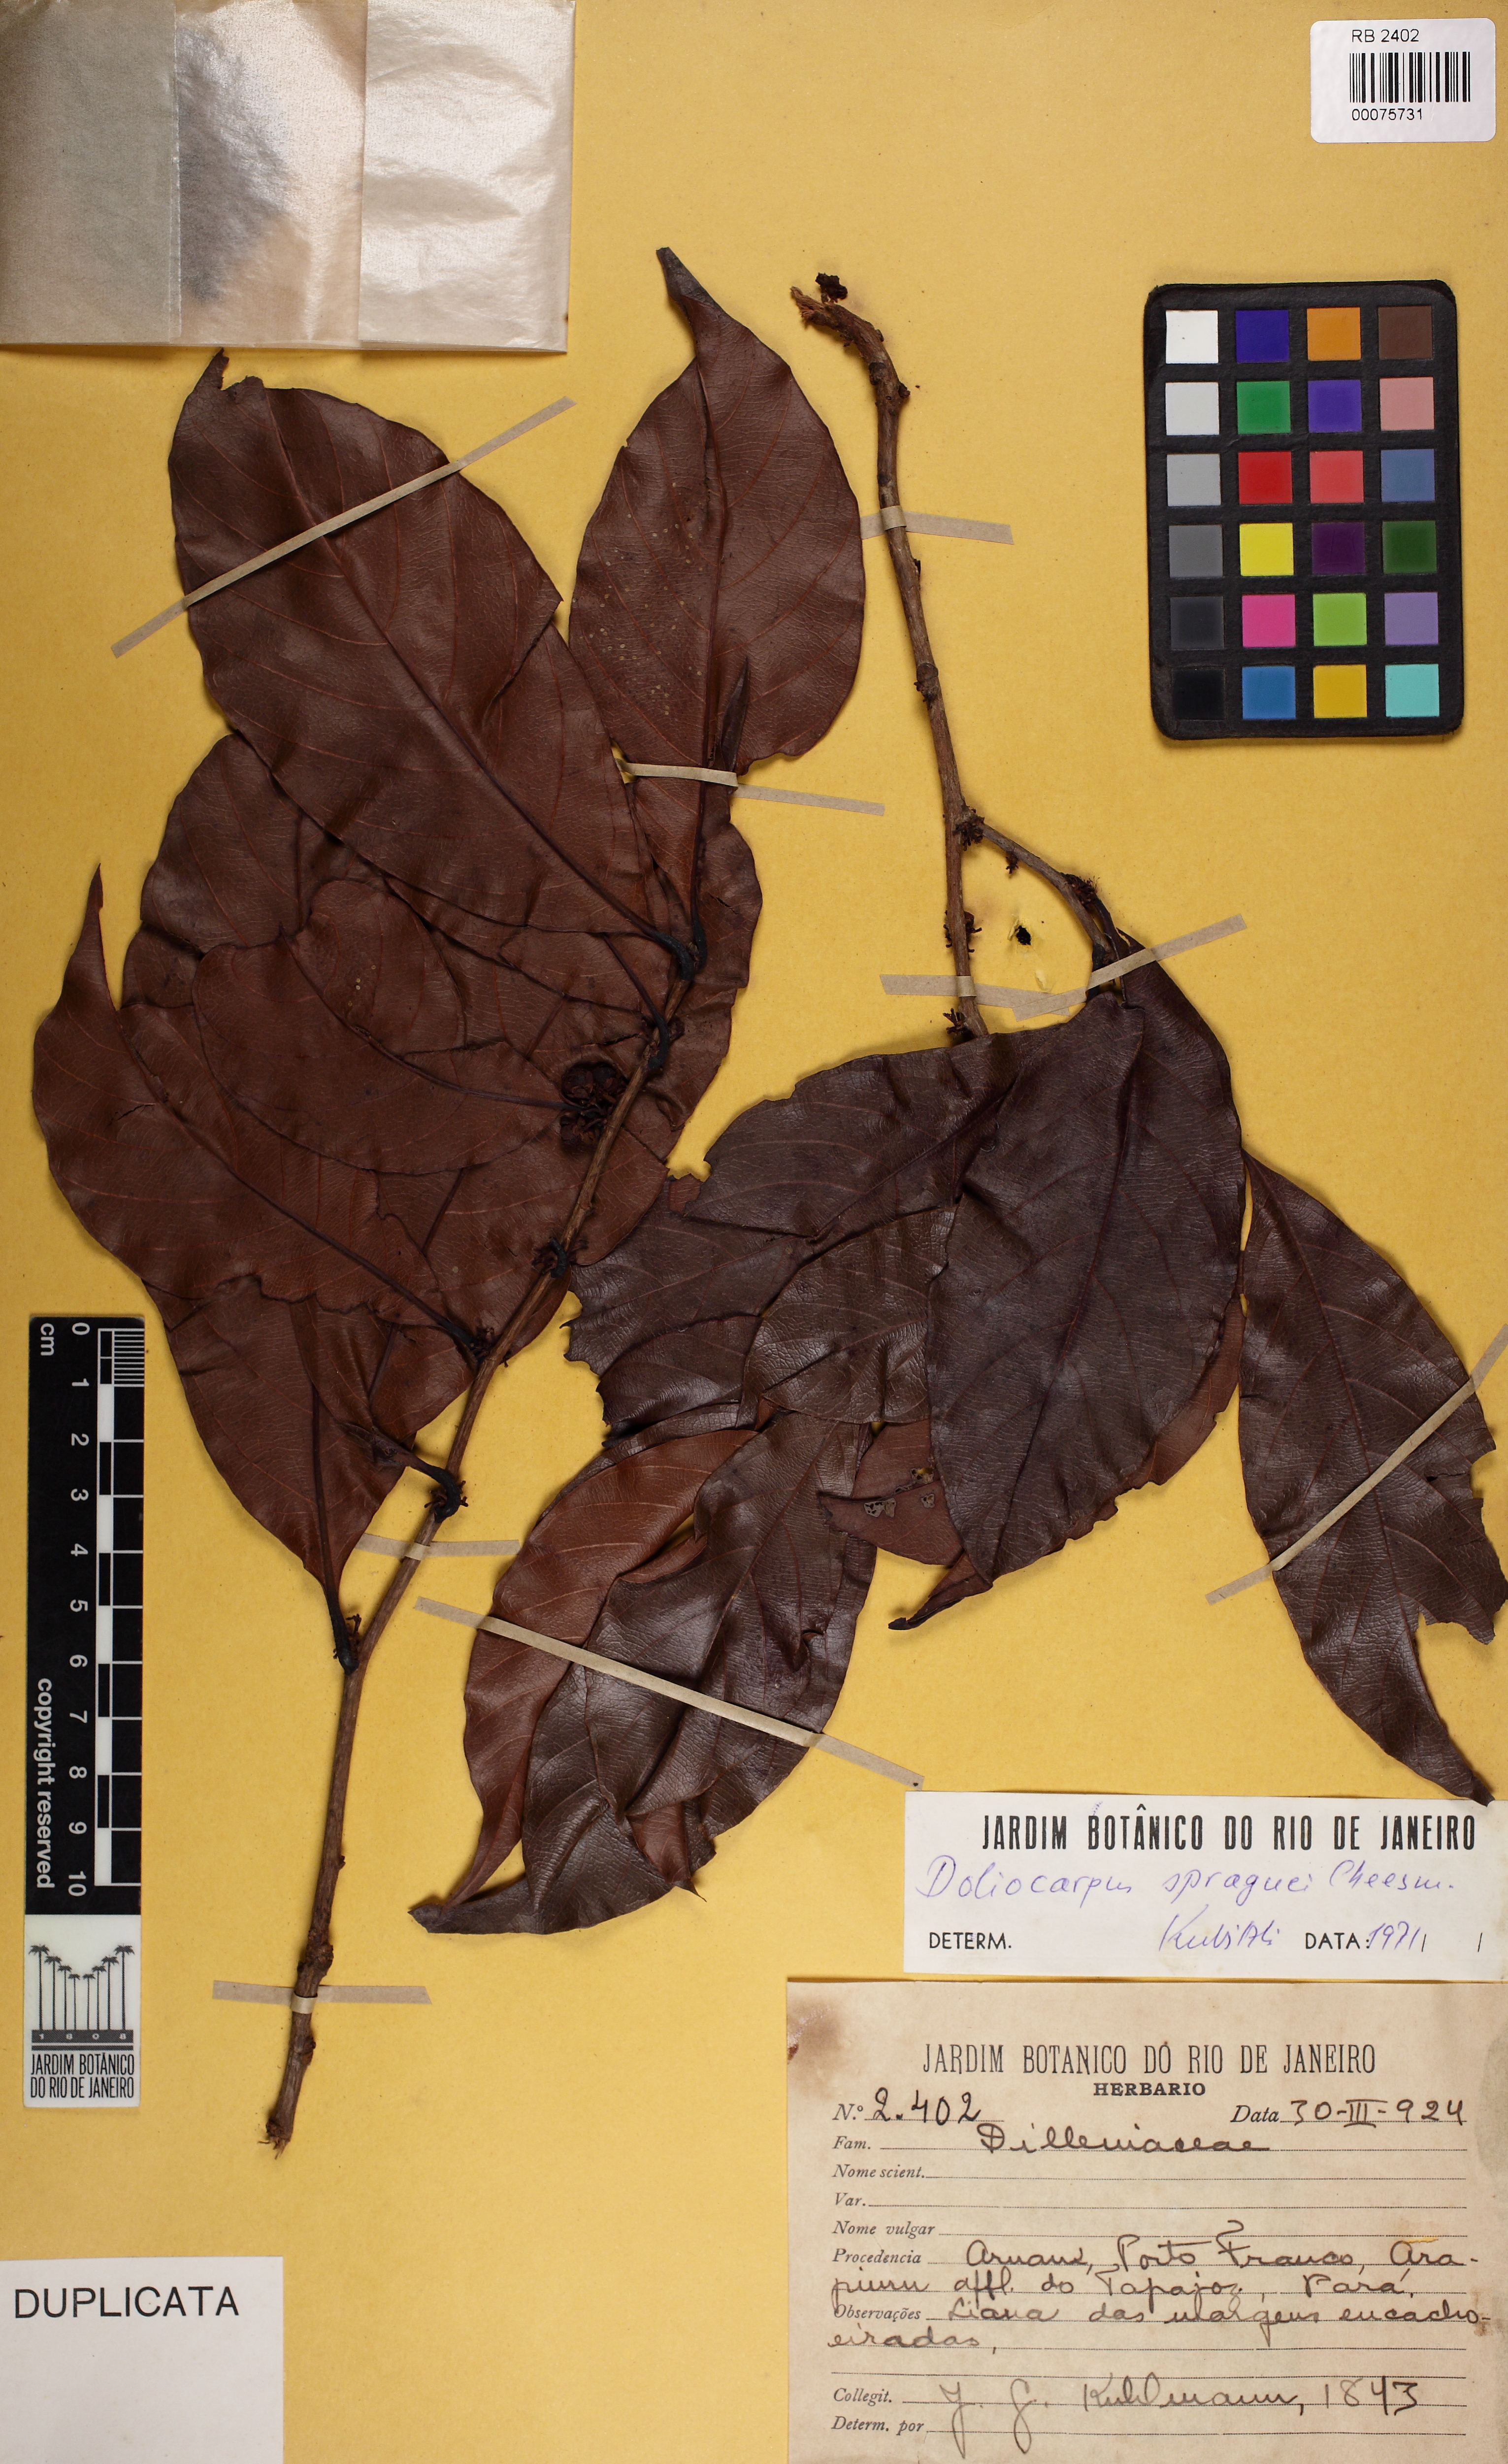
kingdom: Plantae
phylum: Tracheophyta
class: Magnoliopsida
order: Dilleniales
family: Dilleniaceae
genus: Doliocarpus
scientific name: Doliocarpus spraguei
